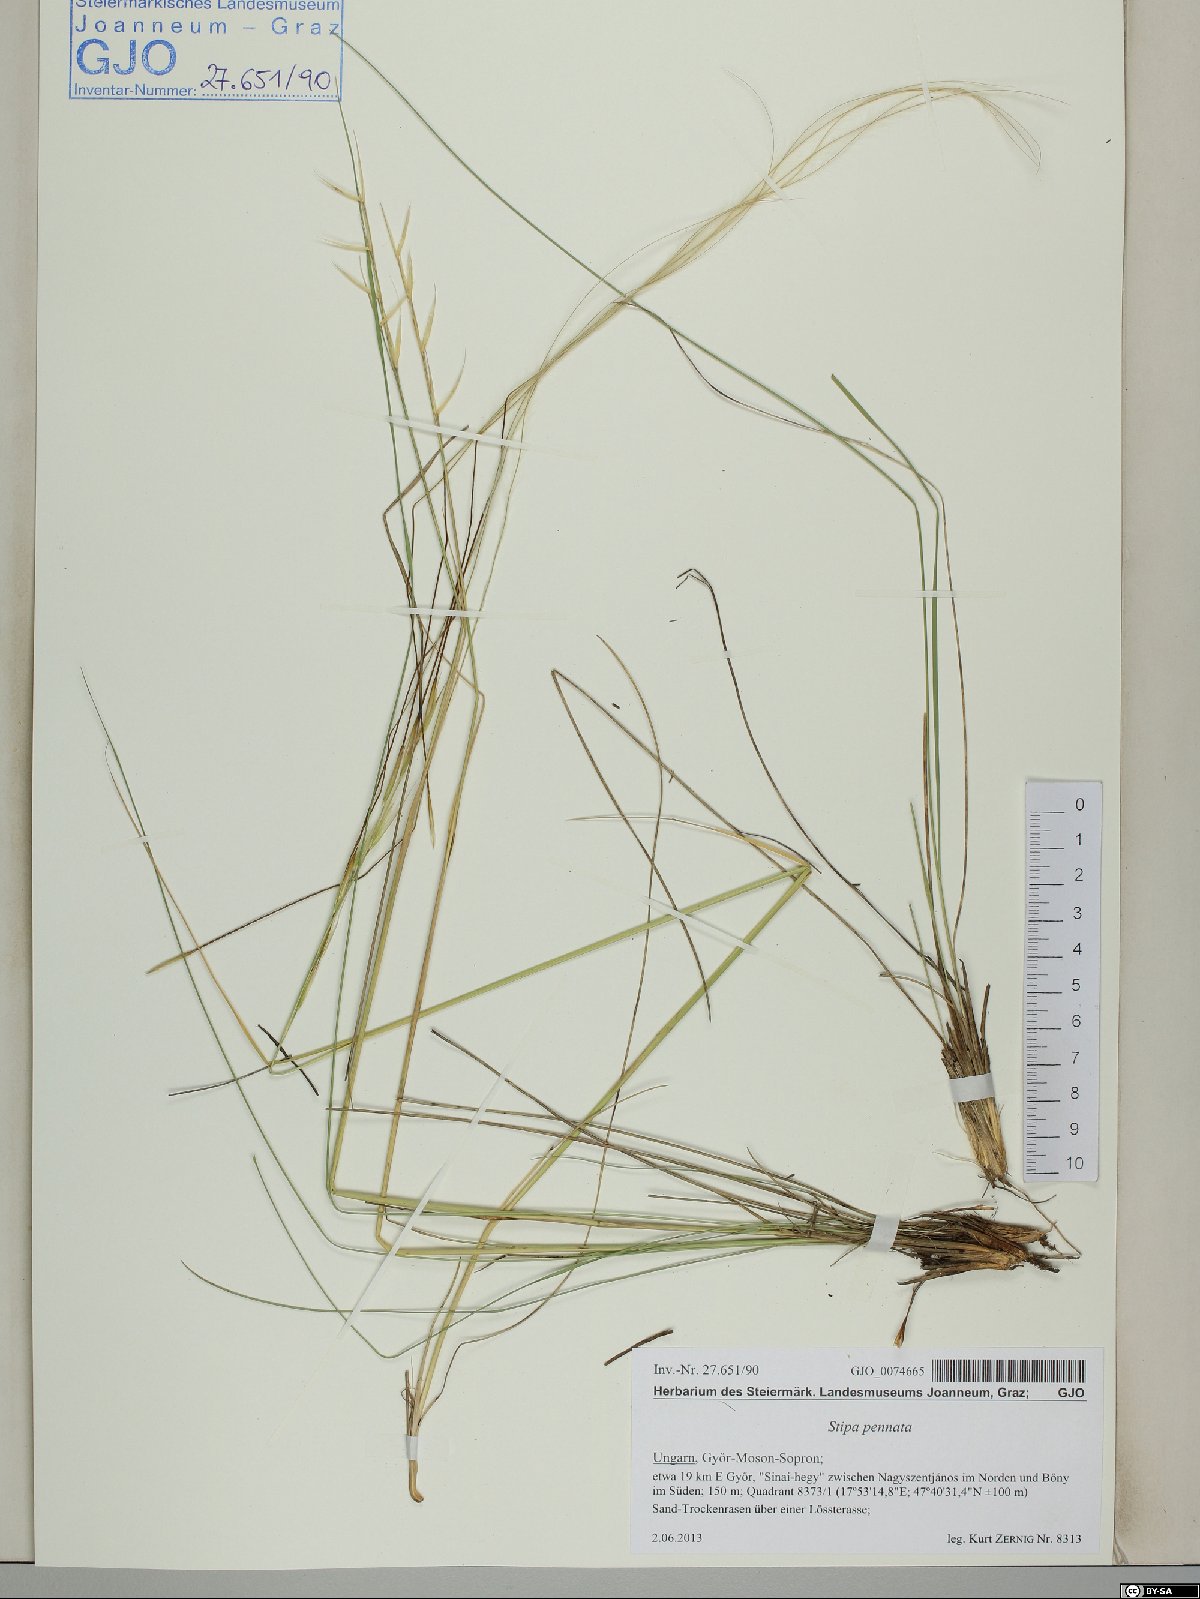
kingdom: Plantae
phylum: Tracheophyta
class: Liliopsida
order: Poales
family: Poaceae
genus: Stipa
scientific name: Stipa pennata
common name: European feather grass
